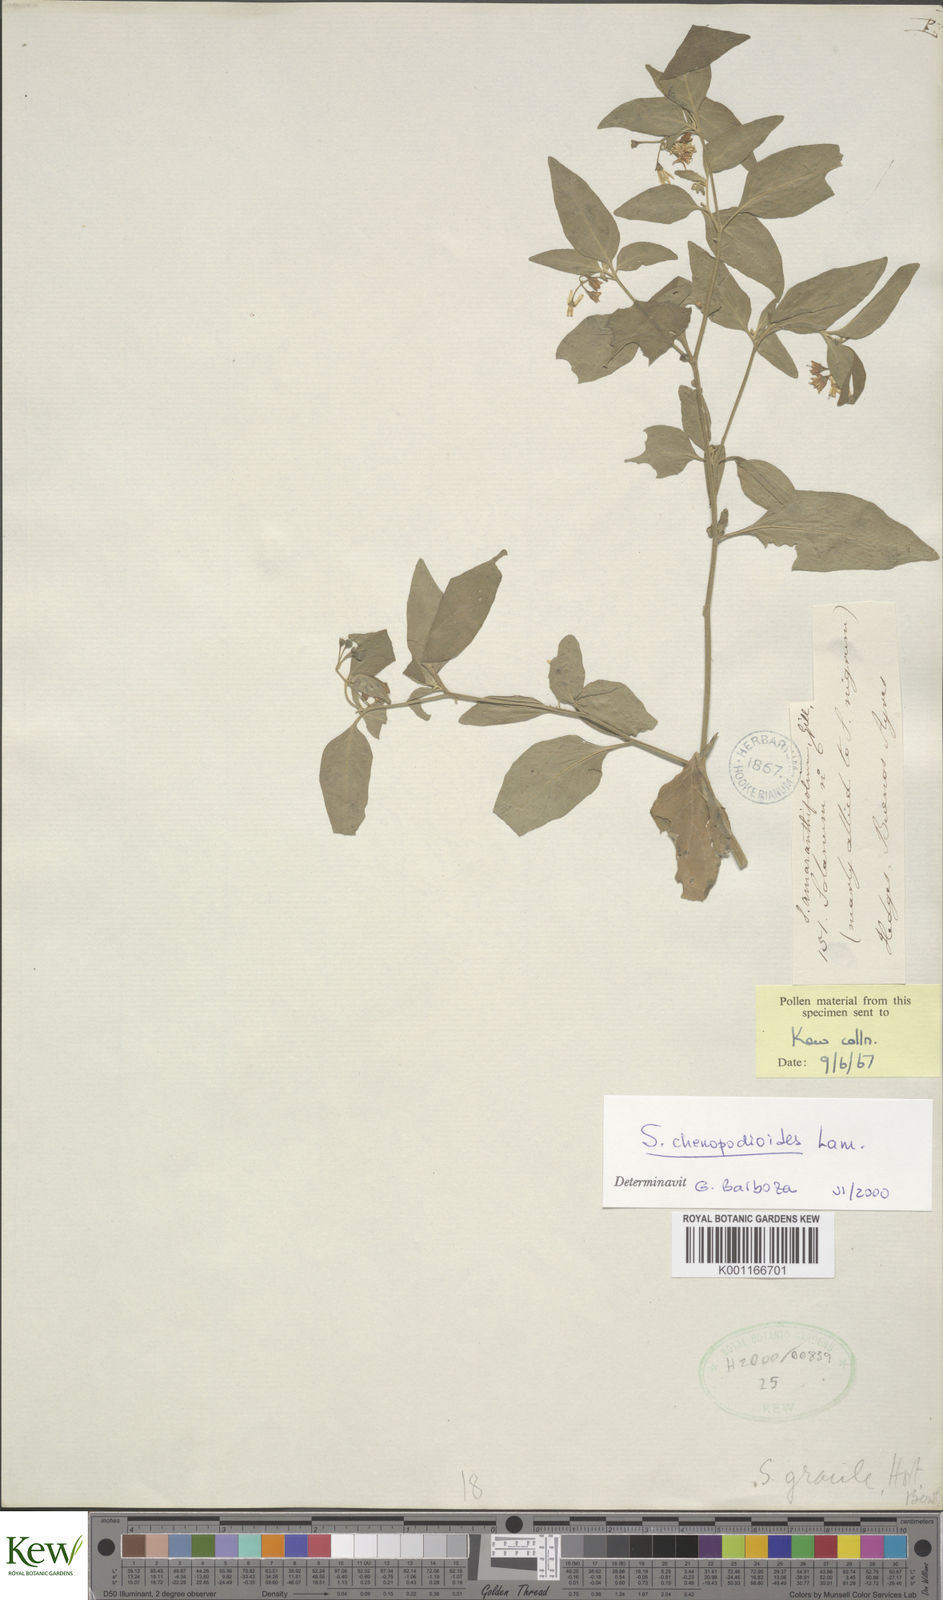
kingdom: Plantae
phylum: Tracheophyta
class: Magnoliopsida
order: Solanales
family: Solanaceae
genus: Solanum
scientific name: Solanum chenopodioides
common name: Tall nightshade
